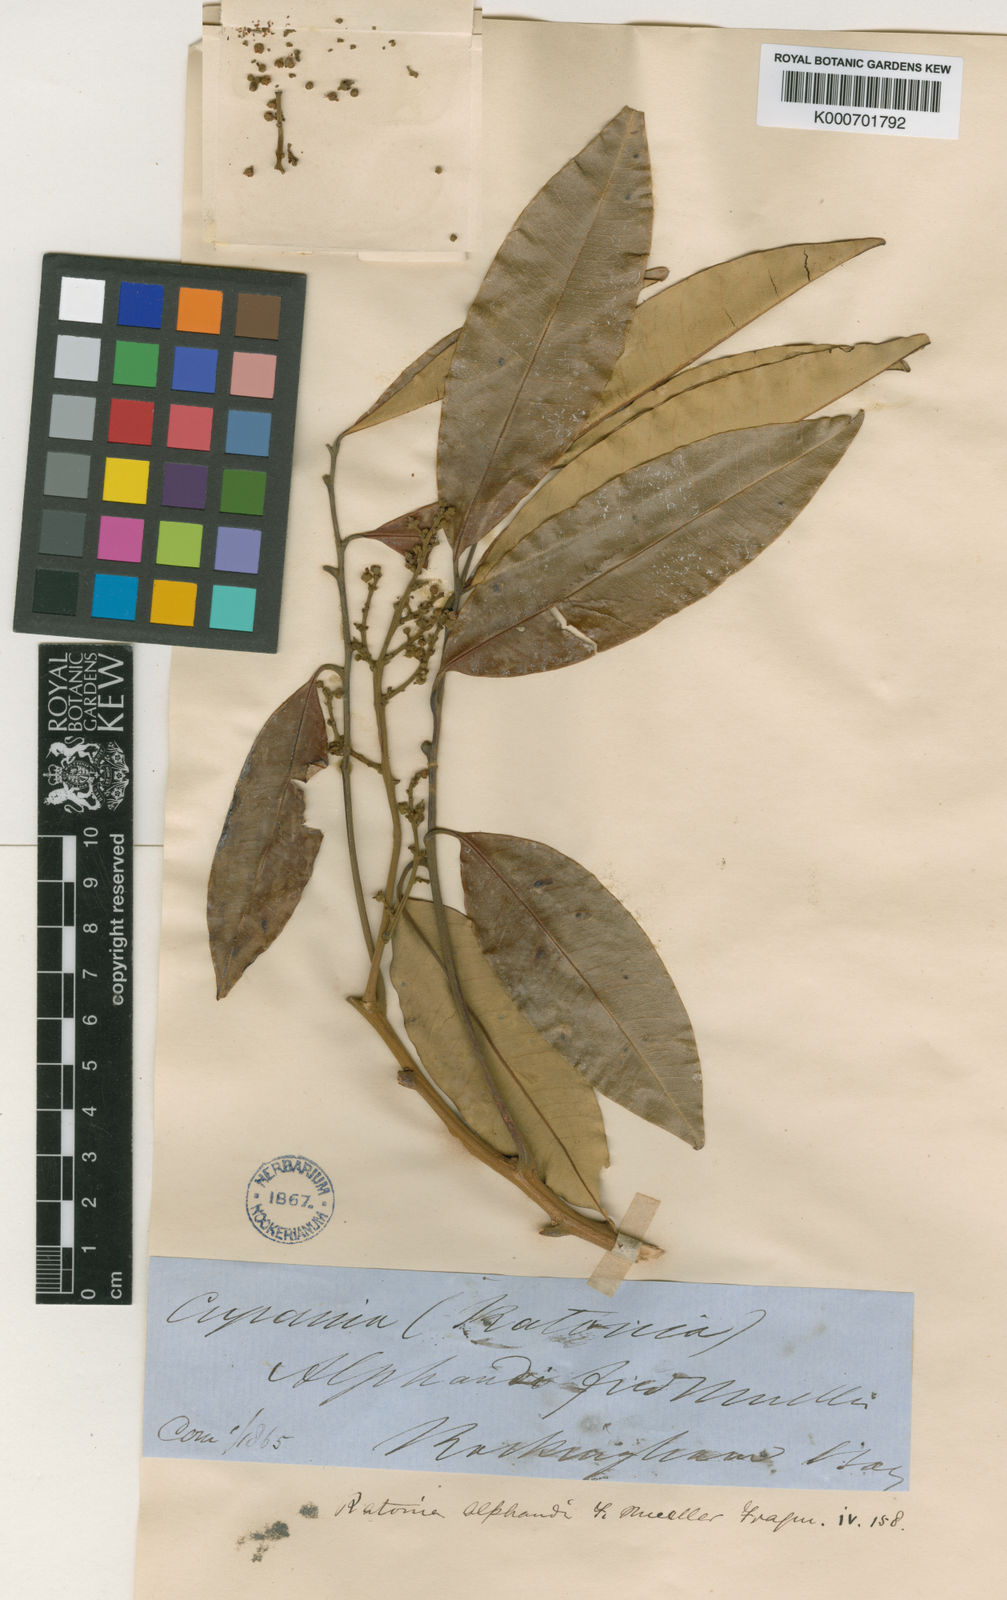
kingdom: Plantae
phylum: Tracheophyta
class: Magnoliopsida
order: Sapindales
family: Sapindaceae
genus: Castanospora
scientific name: Castanospora alphandii
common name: Brown-tamarind
